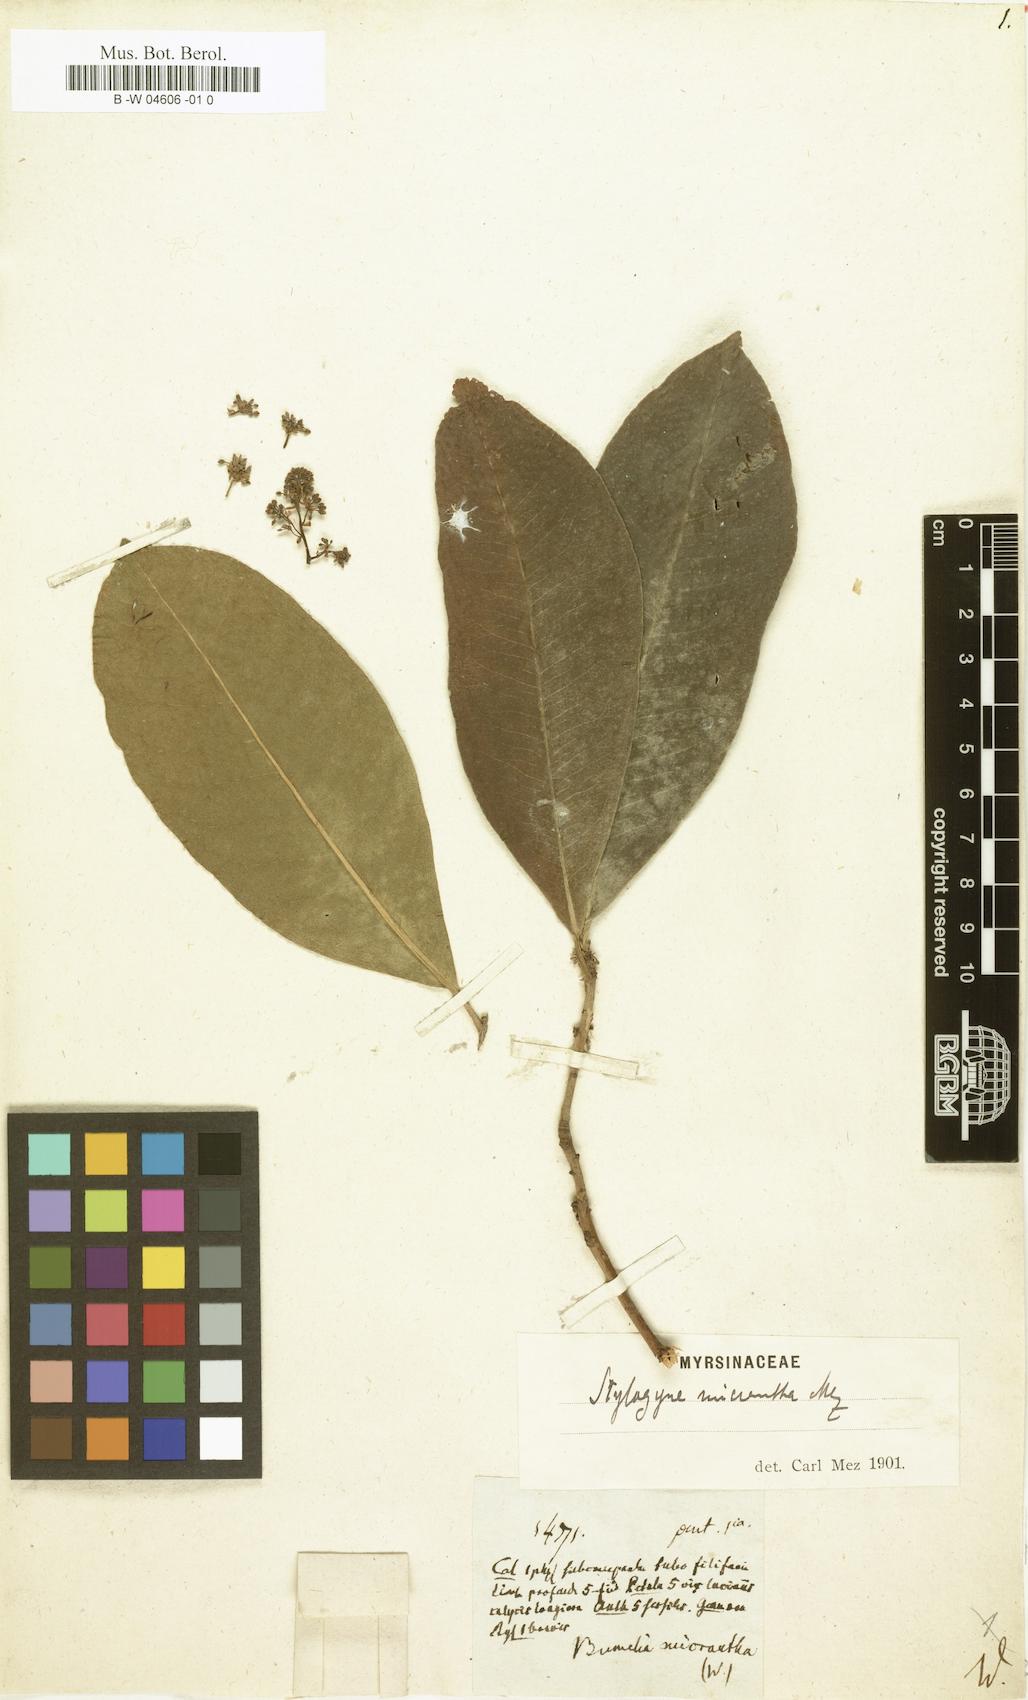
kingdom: Plantae
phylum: Tracheophyta
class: Magnoliopsida
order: Ericales
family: Primulaceae
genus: Stylogyne
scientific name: Stylogyne micrantha
